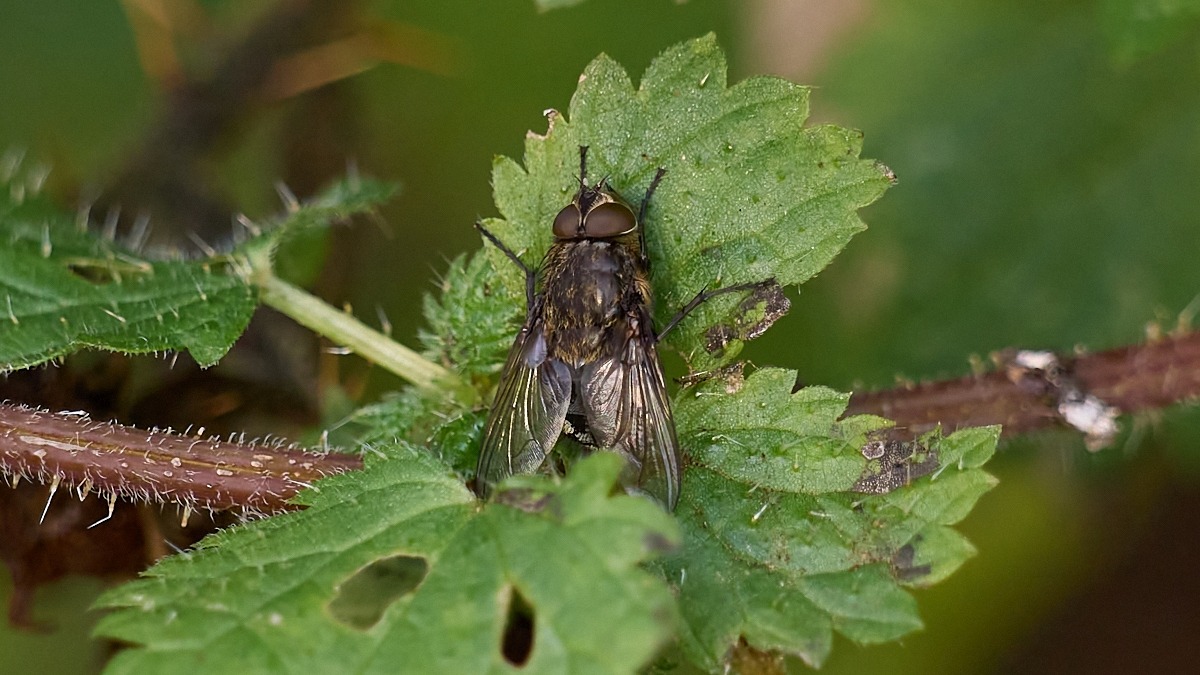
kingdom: Animalia
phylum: Arthropoda
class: Insecta
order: Diptera
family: Polleniidae
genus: Pollenia
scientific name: Pollenia
